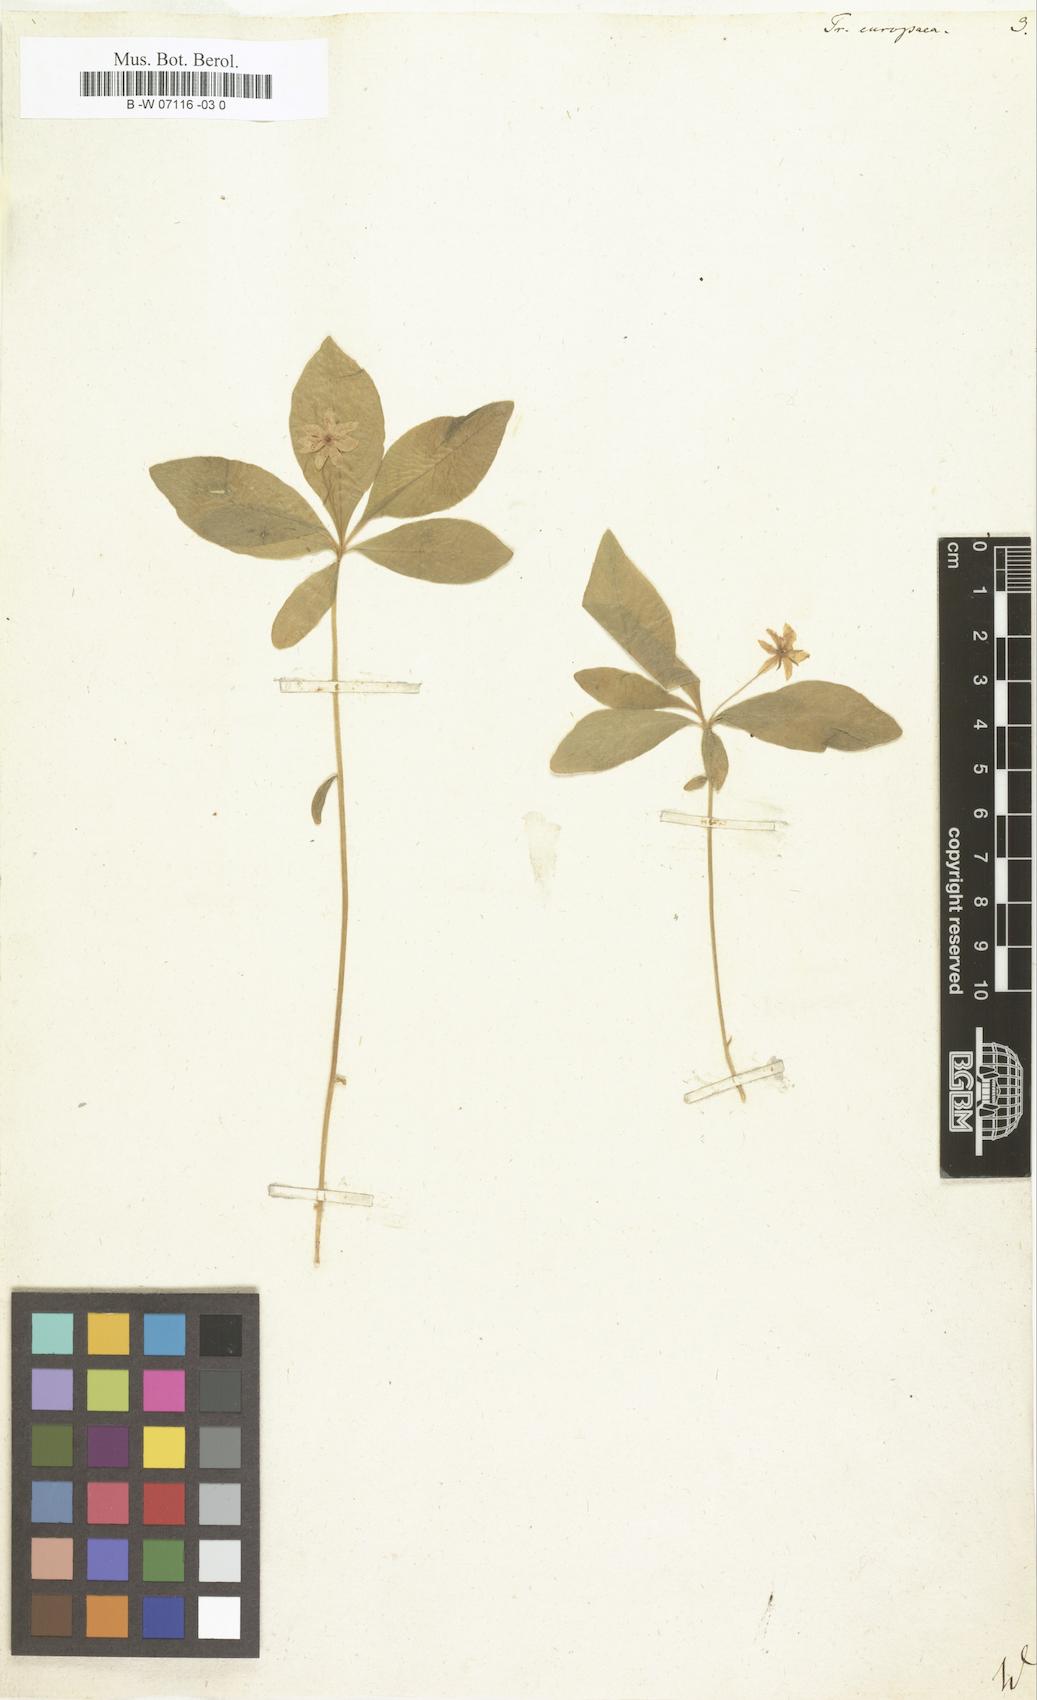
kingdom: Plantae
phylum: Tracheophyta
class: Magnoliopsida
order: Ericales
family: Primulaceae
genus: Lysimachia
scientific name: Lysimachia
